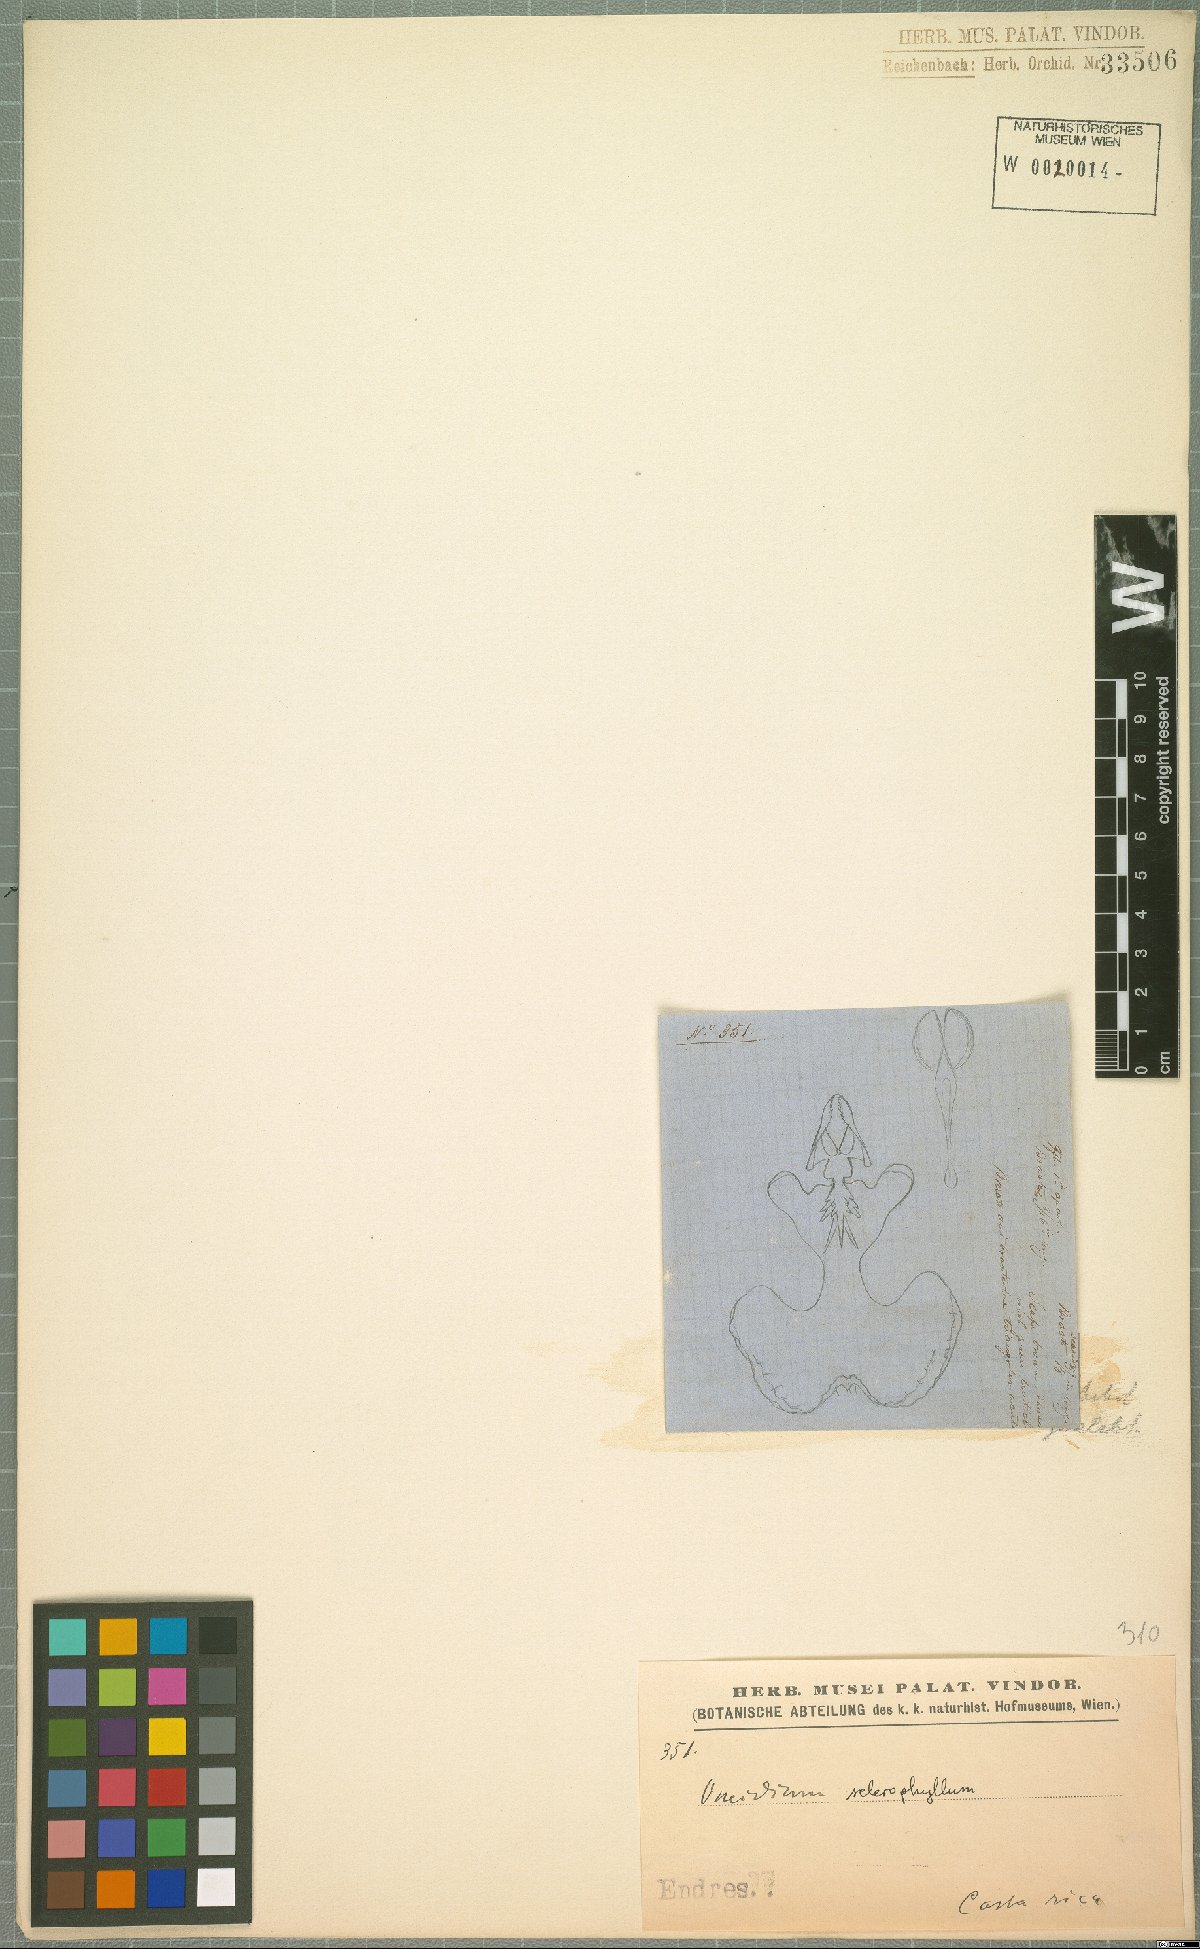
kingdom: Plantae
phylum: Tracheophyta
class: Liliopsida
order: Asparagales
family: Orchidaceae
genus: Oncidium
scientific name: Oncidium nebulosum
